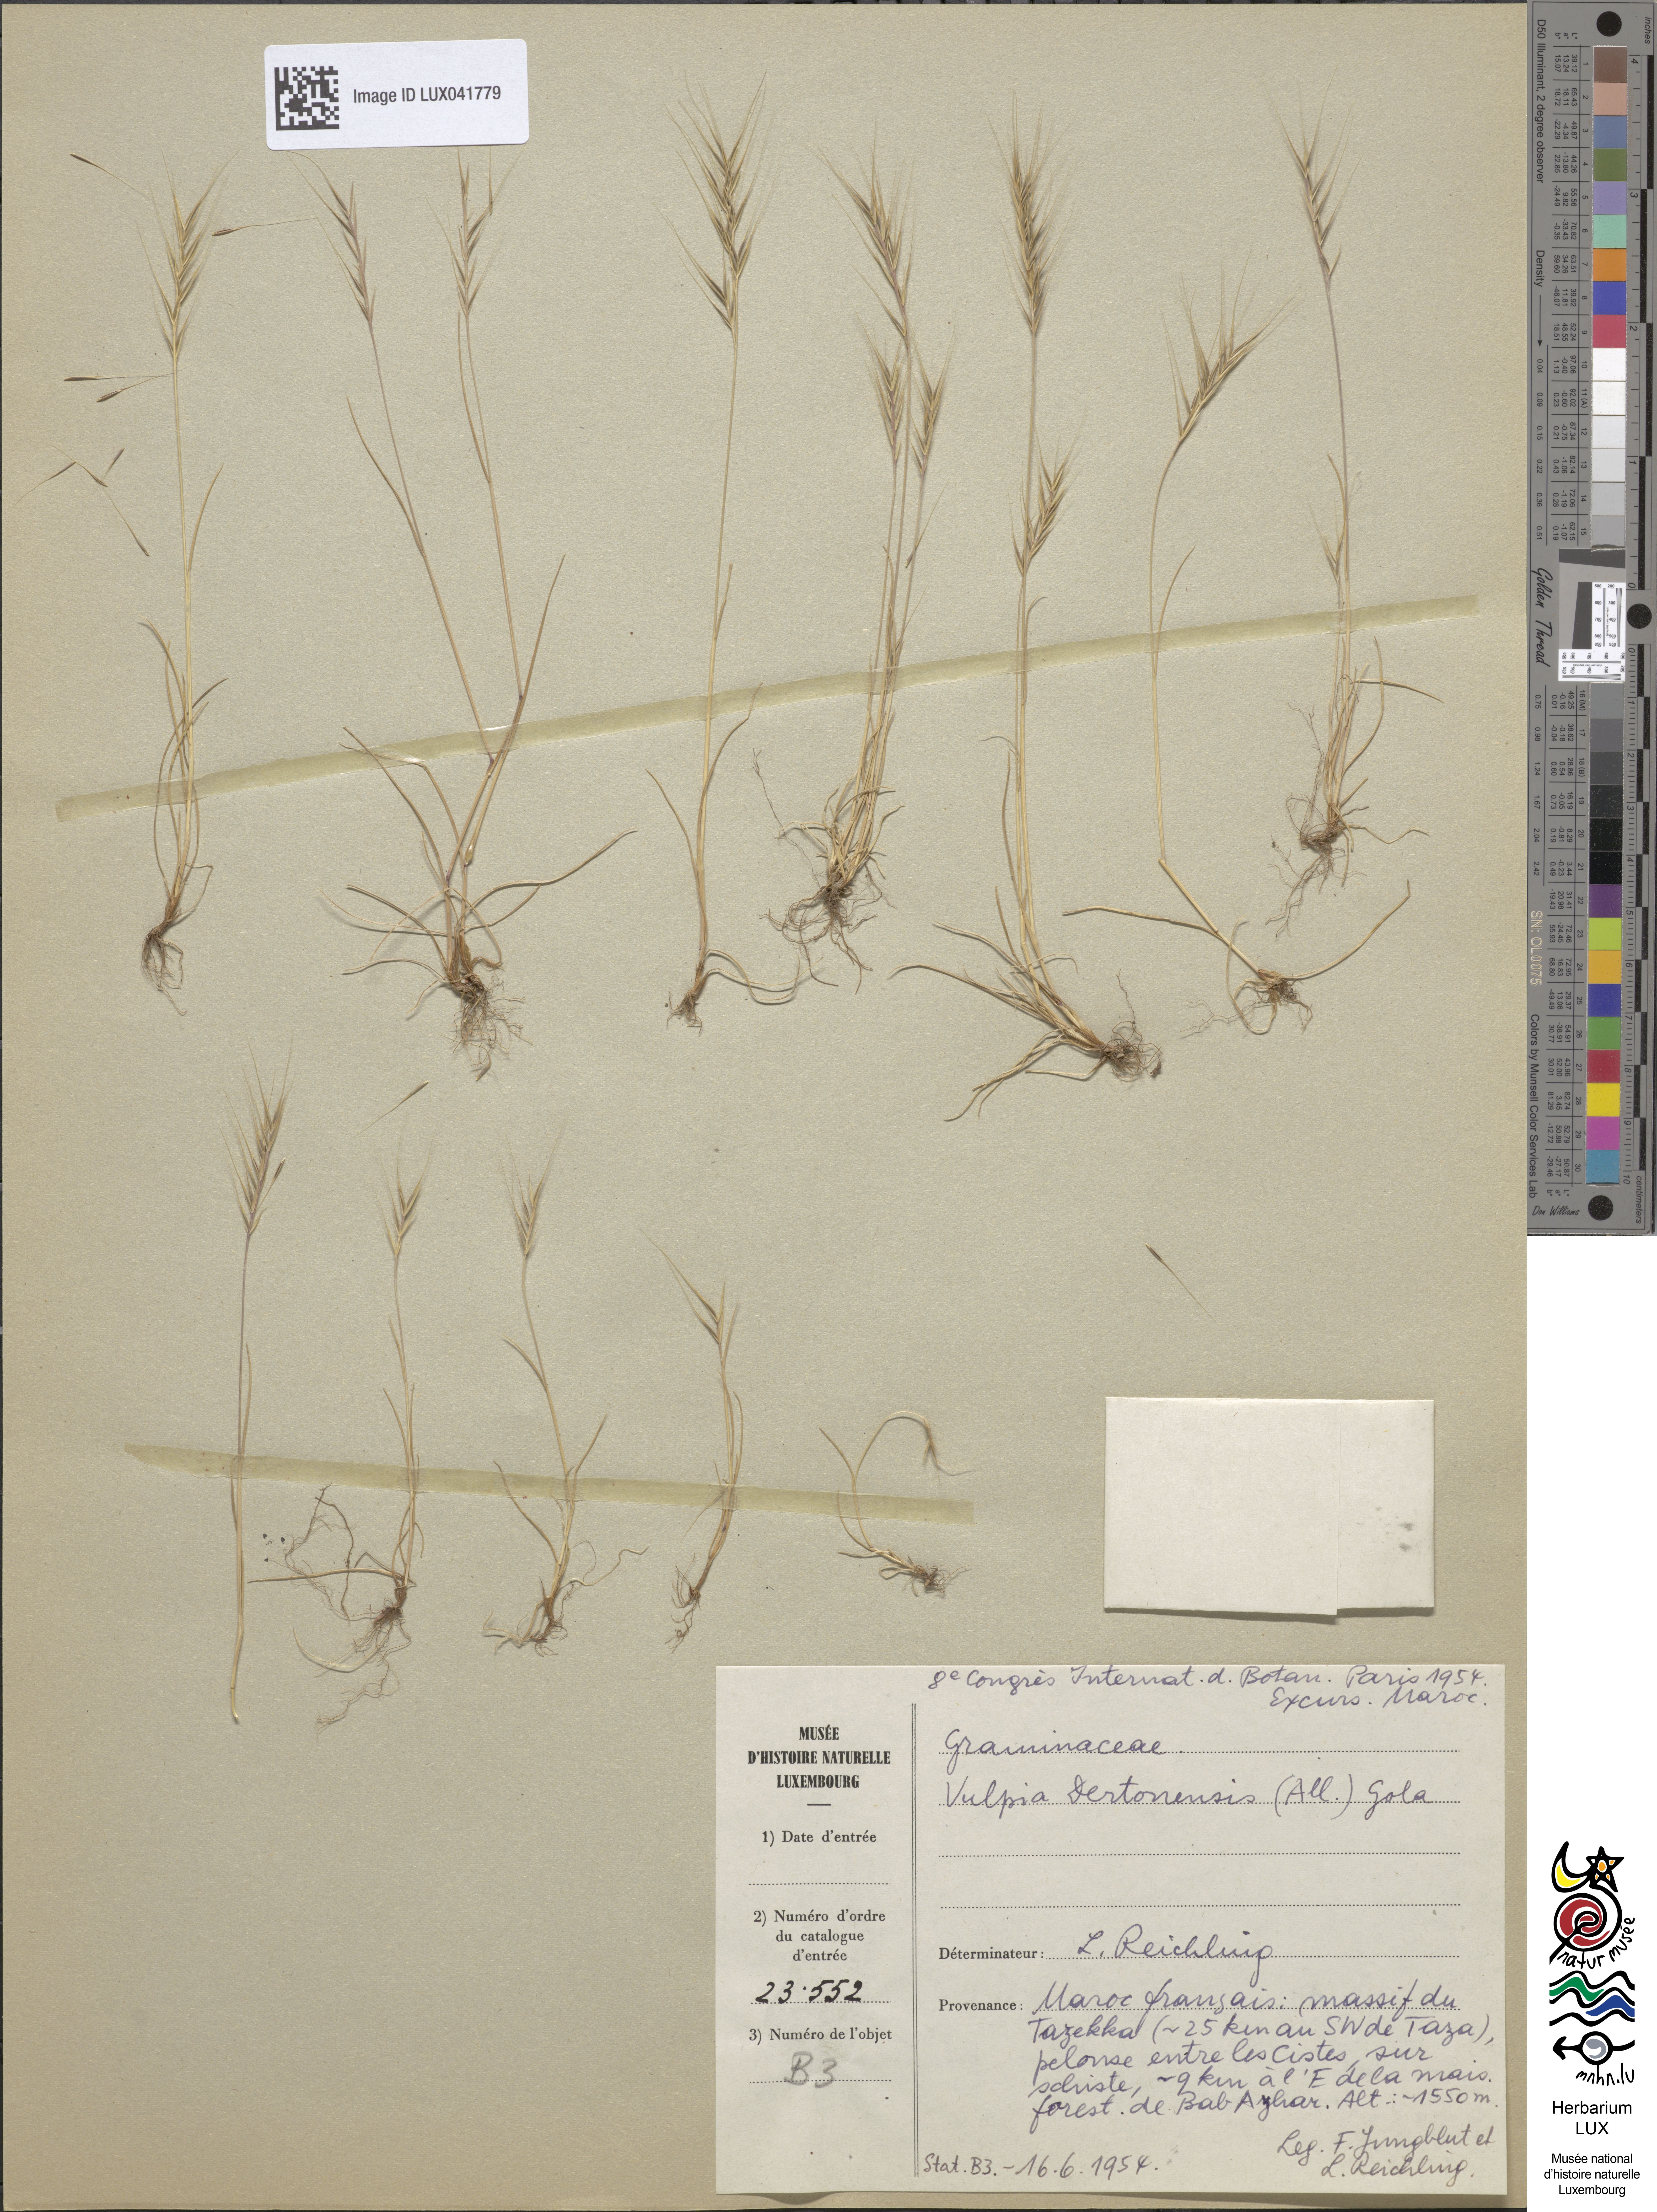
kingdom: Plantae
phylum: Tracheophyta
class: Liliopsida
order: Poales
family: Poaceae
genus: Festuca
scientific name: Festuca bromoides
